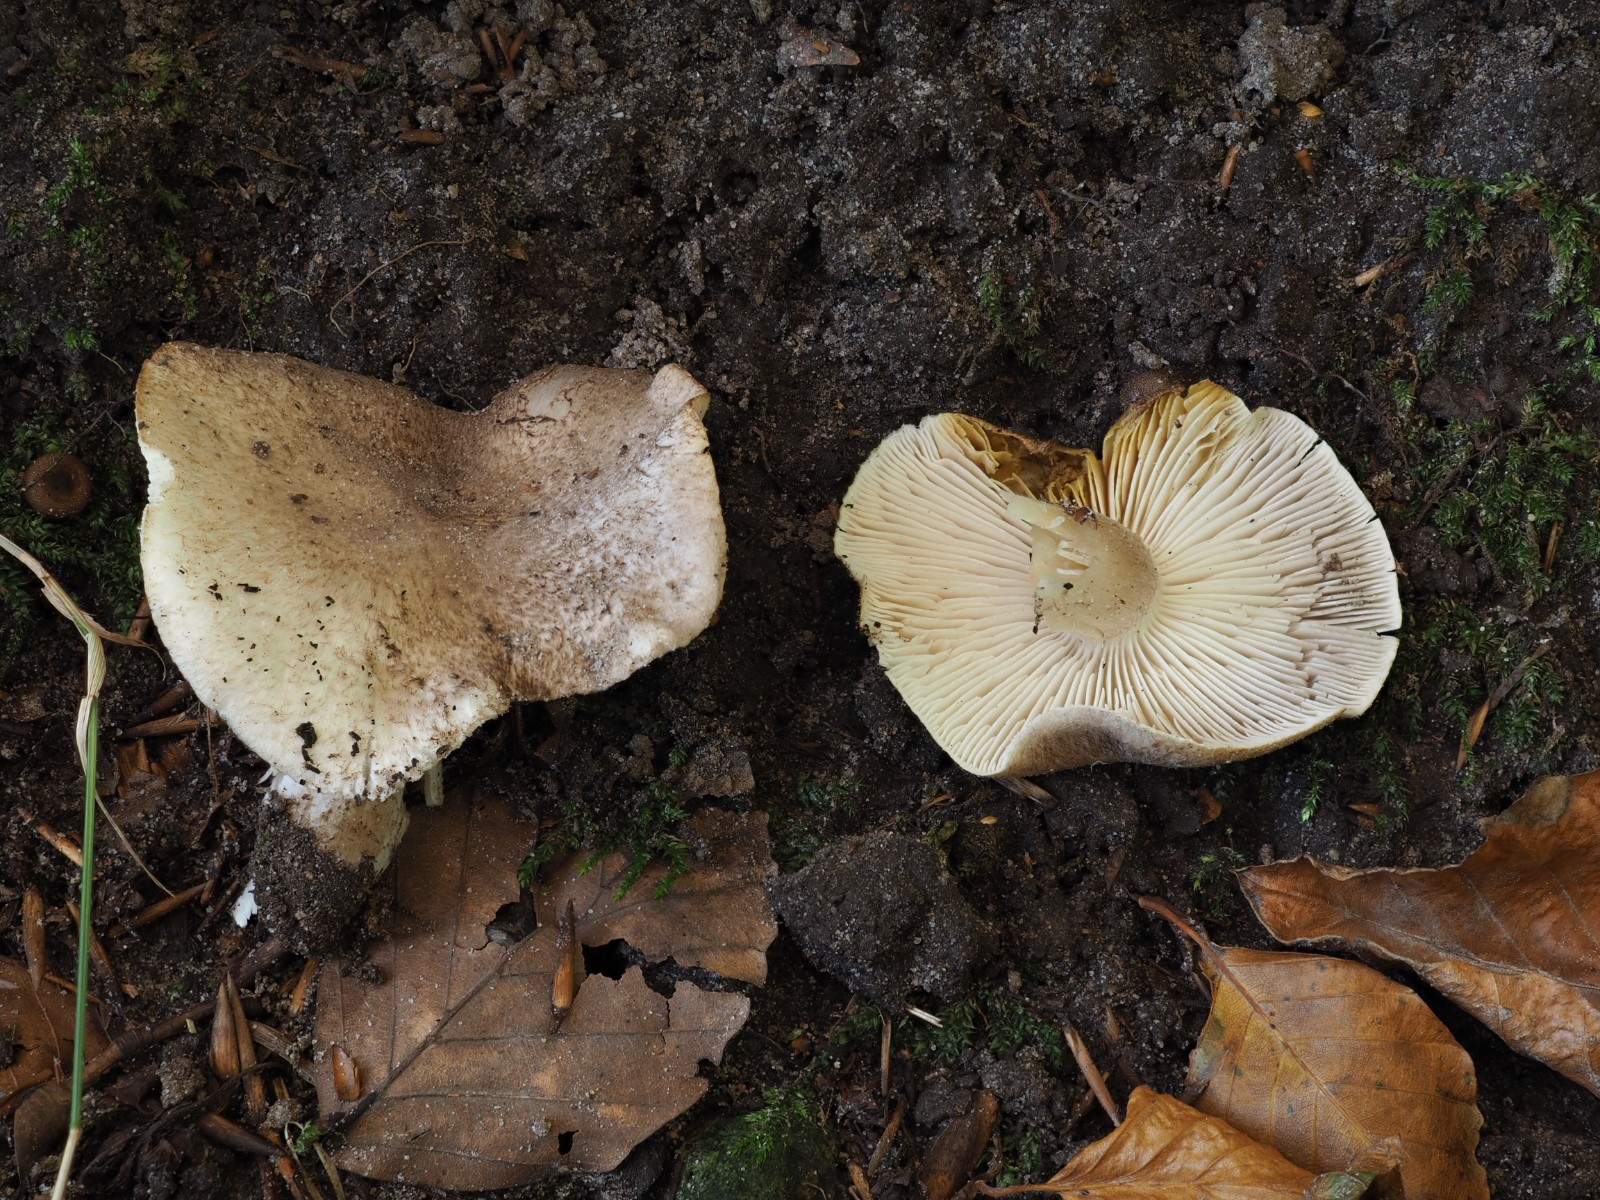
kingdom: Fungi
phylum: Basidiomycota
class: Agaricomycetes
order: Agaricales
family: Tricholomataceae
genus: Tricholoma
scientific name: Tricholoma scalpturatum
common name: gulplettet ridderhat
